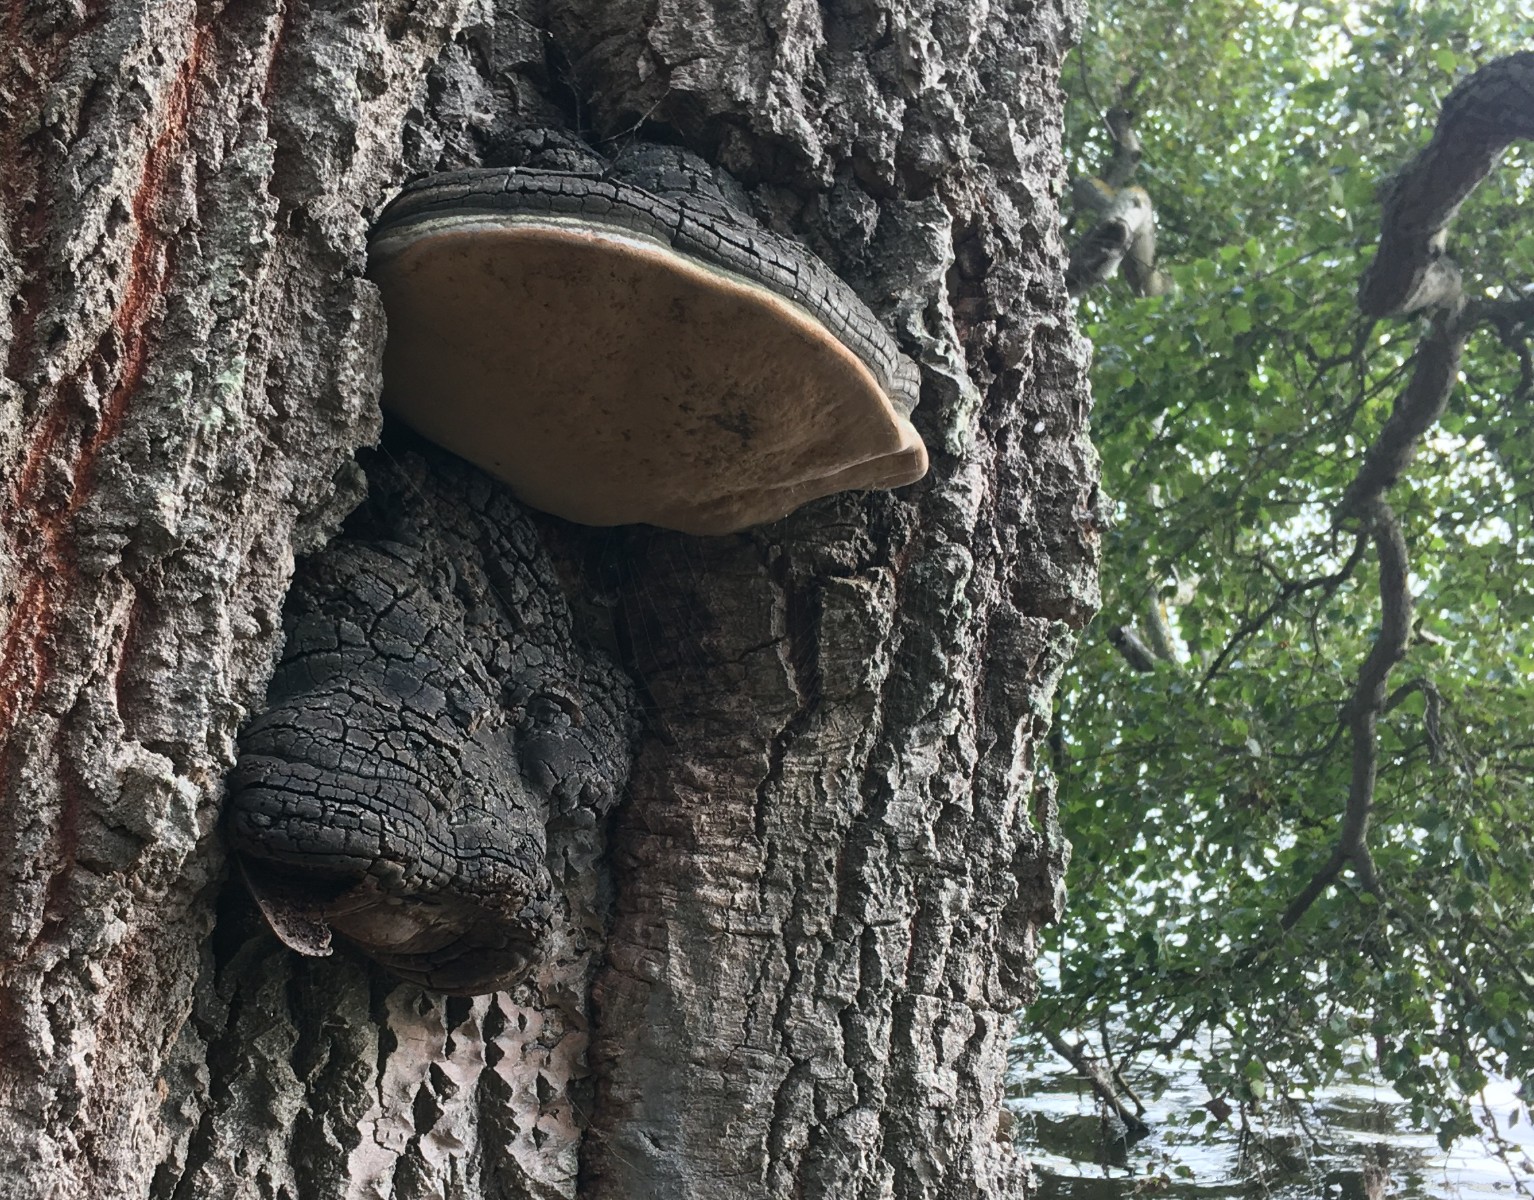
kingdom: Fungi
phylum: Basidiomycota
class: Agaricomycetes
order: Hymenochaetales
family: Hymenochaetaceae
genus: Phellinus
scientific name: Phellinus populicola
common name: poppel-ildporesvamp
